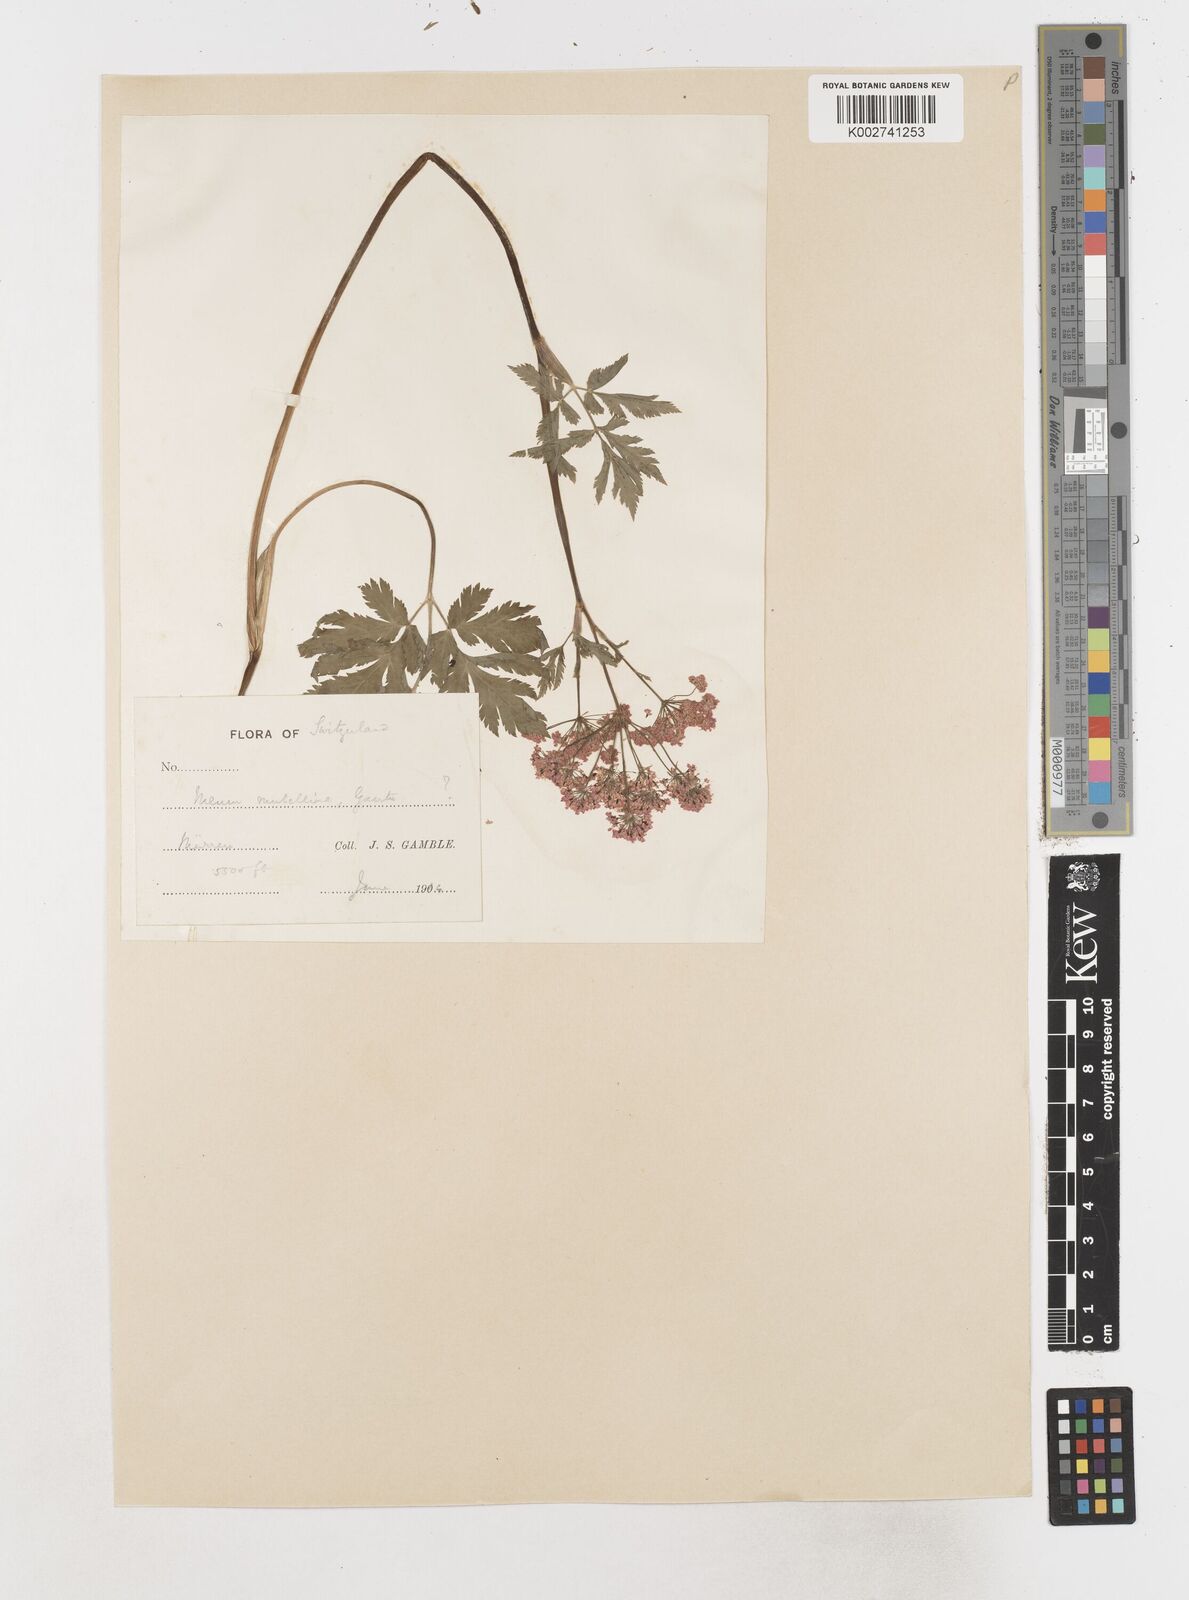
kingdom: Plantae
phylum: Tracheophyta
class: Magnoliopsida
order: Apiales
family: Apiaceae
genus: Mutellina
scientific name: Mutellina adonidifolia
